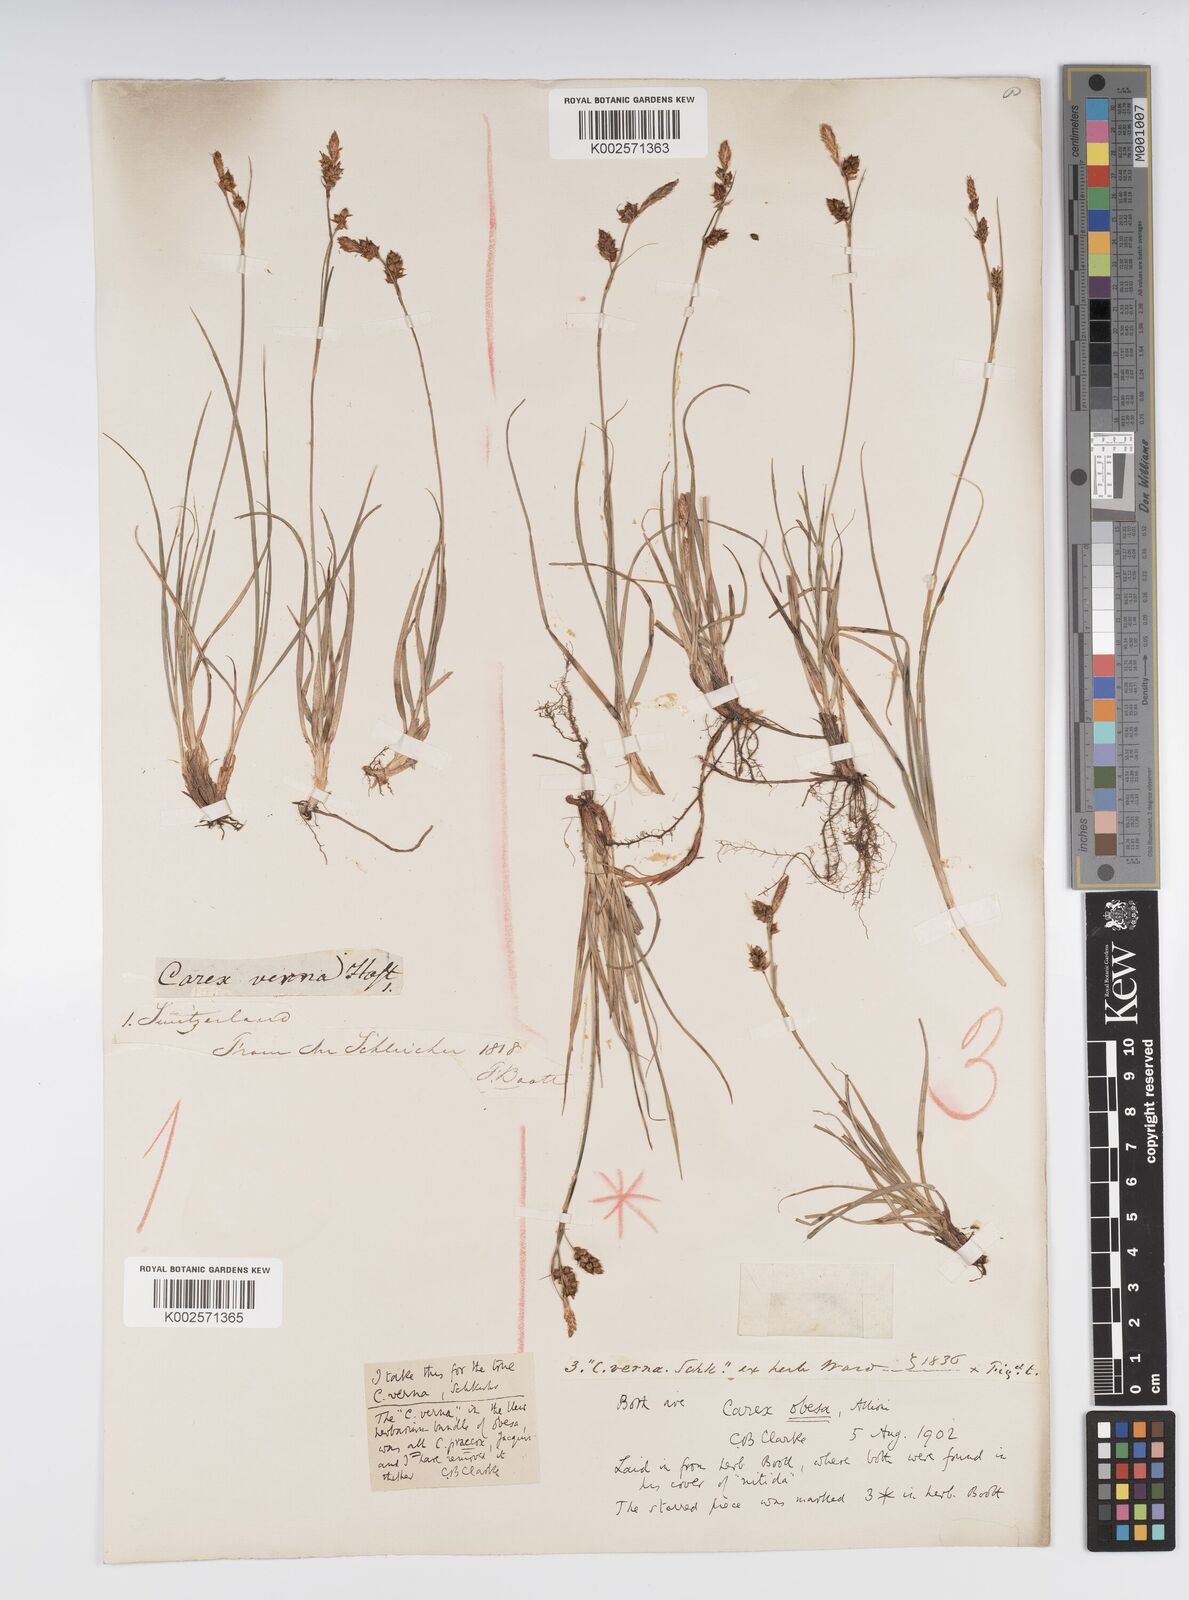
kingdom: Plantae
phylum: Tracheophyta
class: Liliopsida
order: Poales
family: Cyperaceae
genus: Carex
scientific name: Carex liparocarpos
